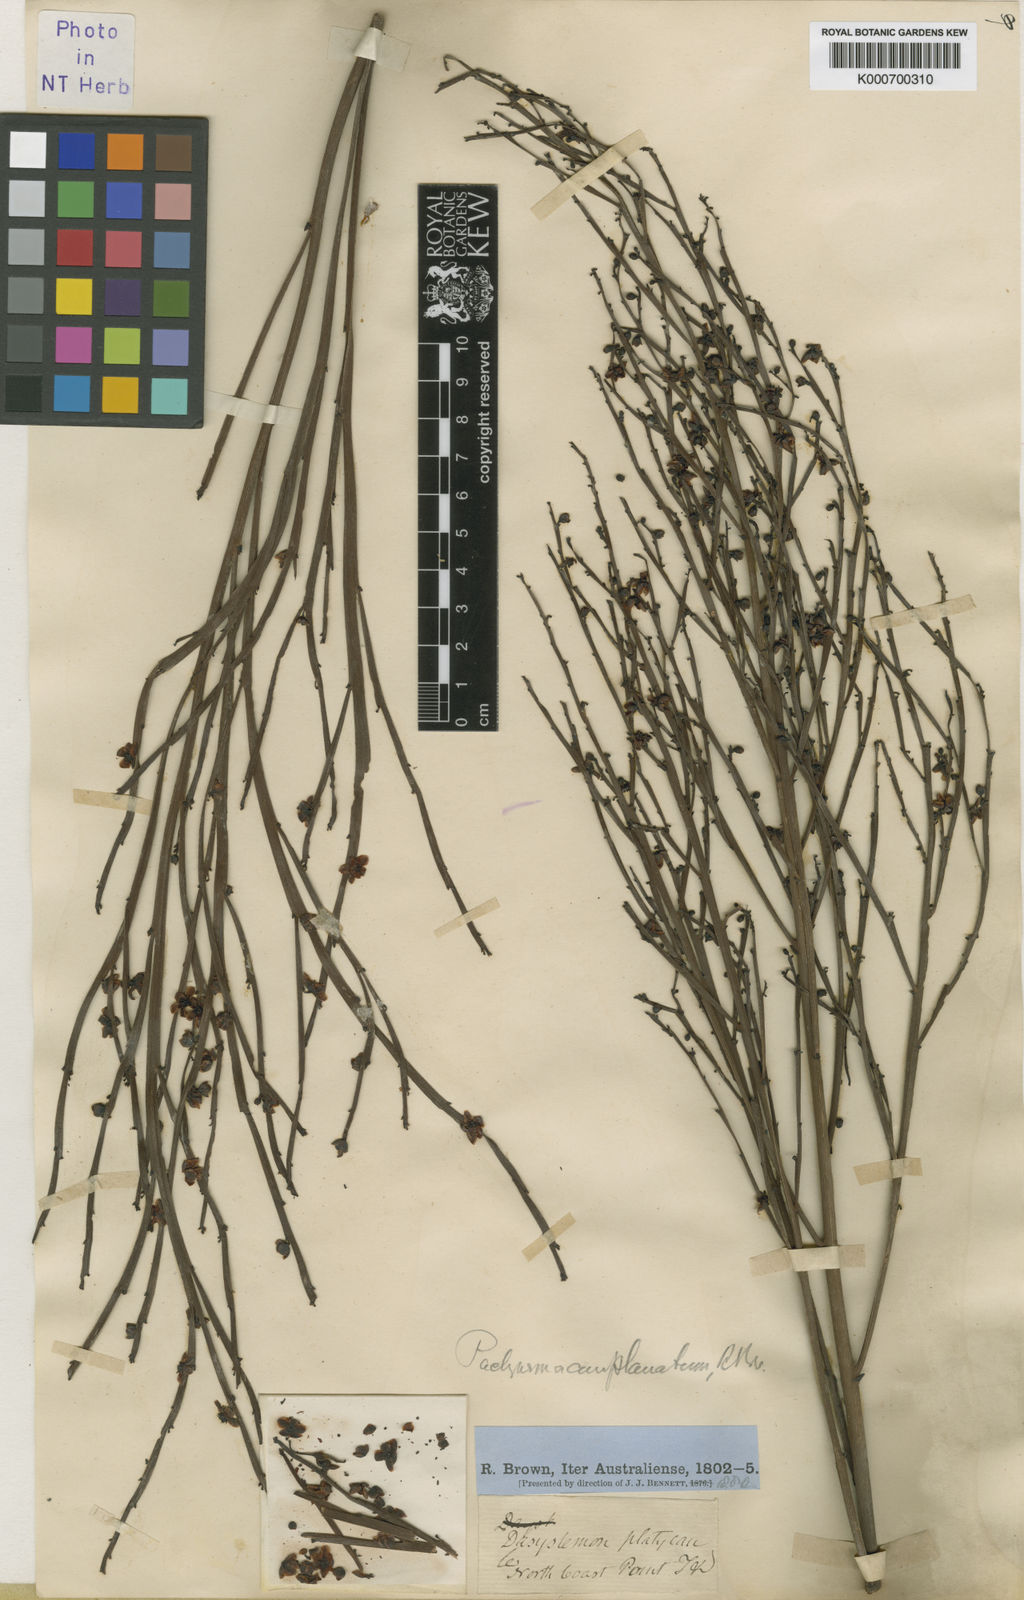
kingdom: Plantae
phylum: Tracheophyta
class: Magnoliopsida
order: Dilleniales
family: Dilleniaceae
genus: Hibbertia
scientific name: Hibbertia persquamata
